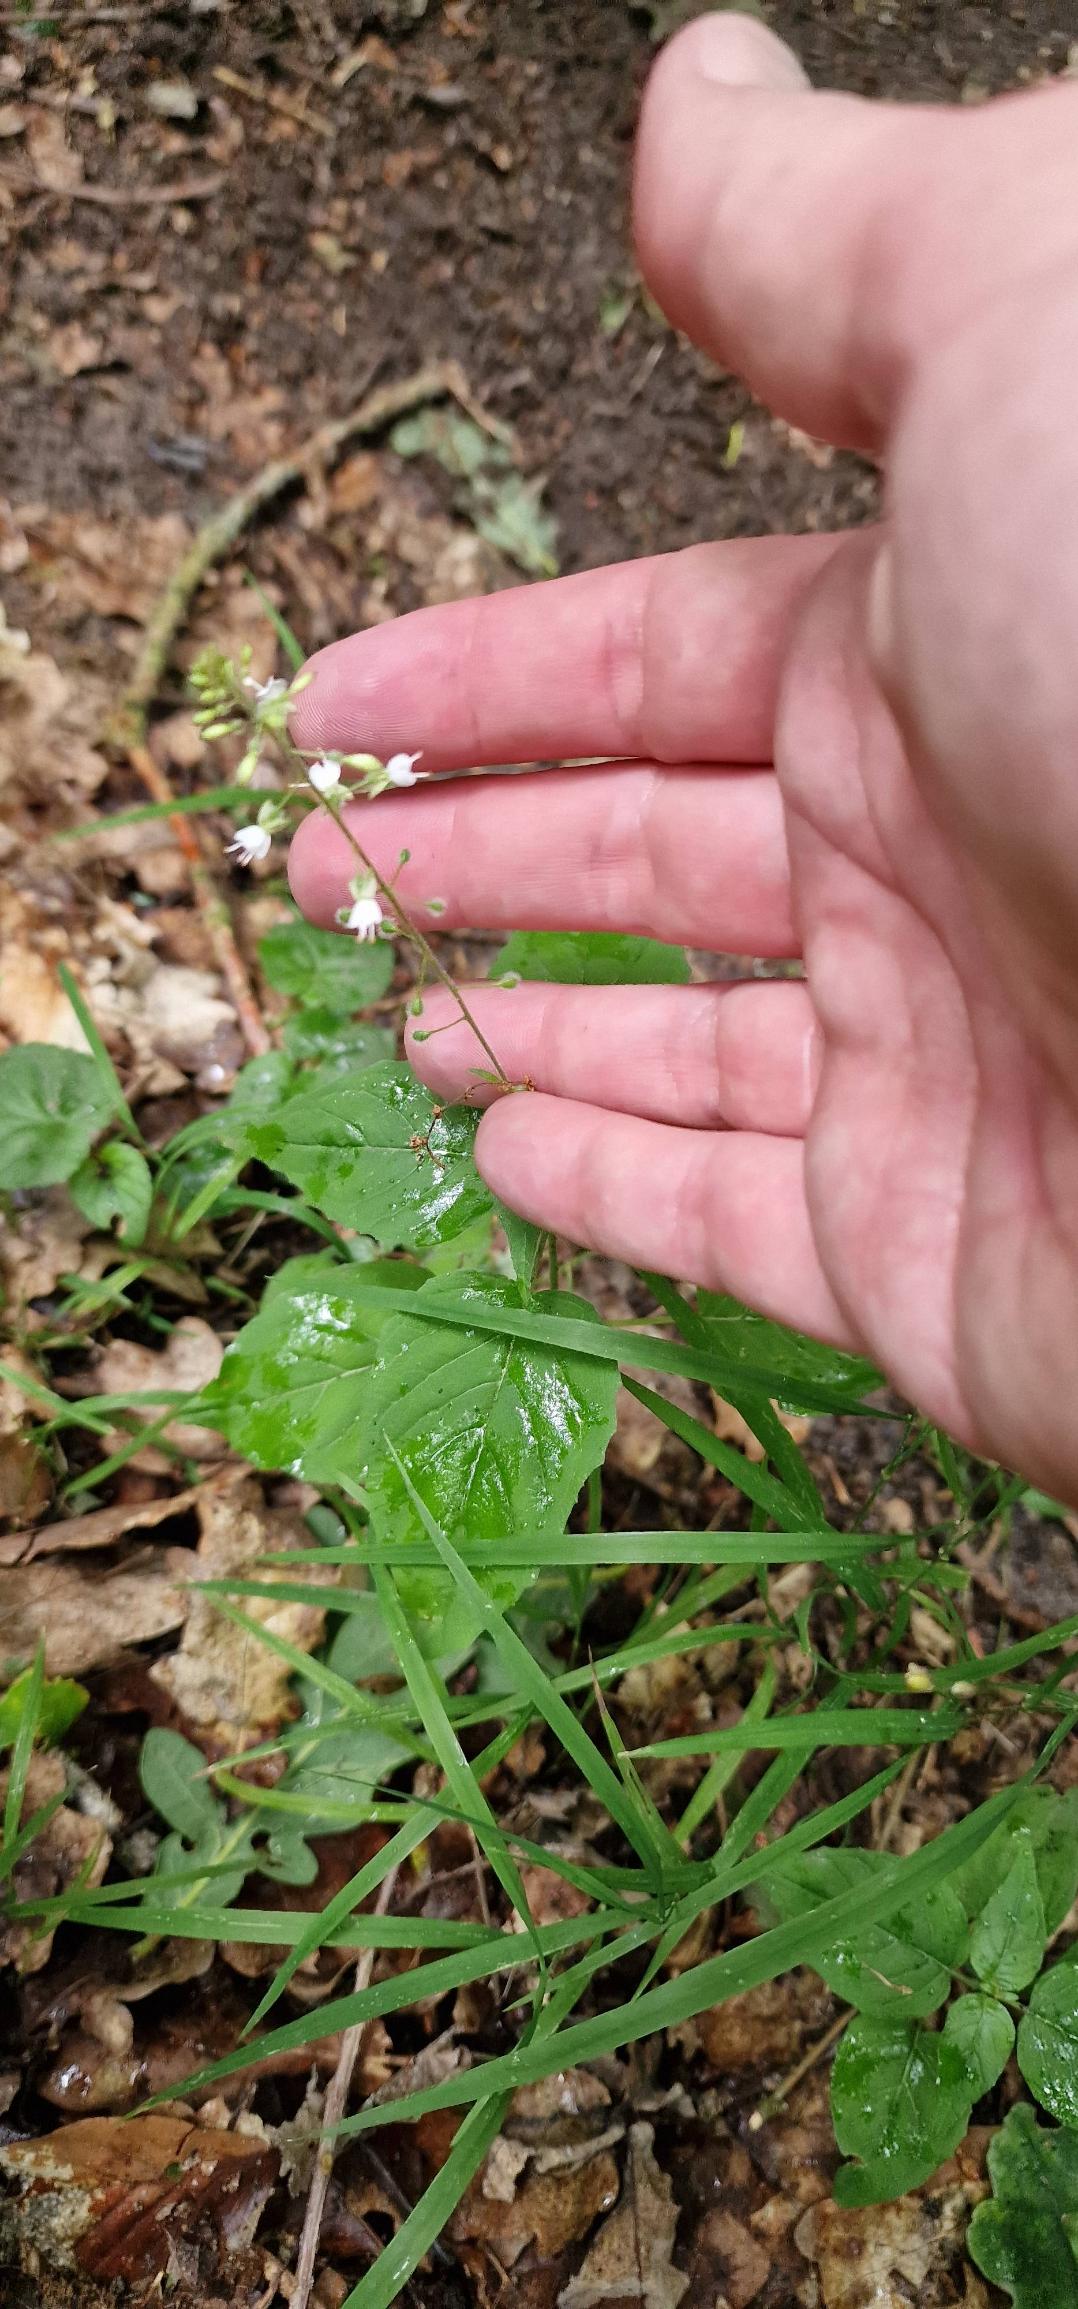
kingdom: Plantae
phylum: Tracheophyta
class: Magnoliopsida
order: Myrtales
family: Onagraceae
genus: Circaea
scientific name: Circaea lutetiana
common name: Dunet steffensurt
